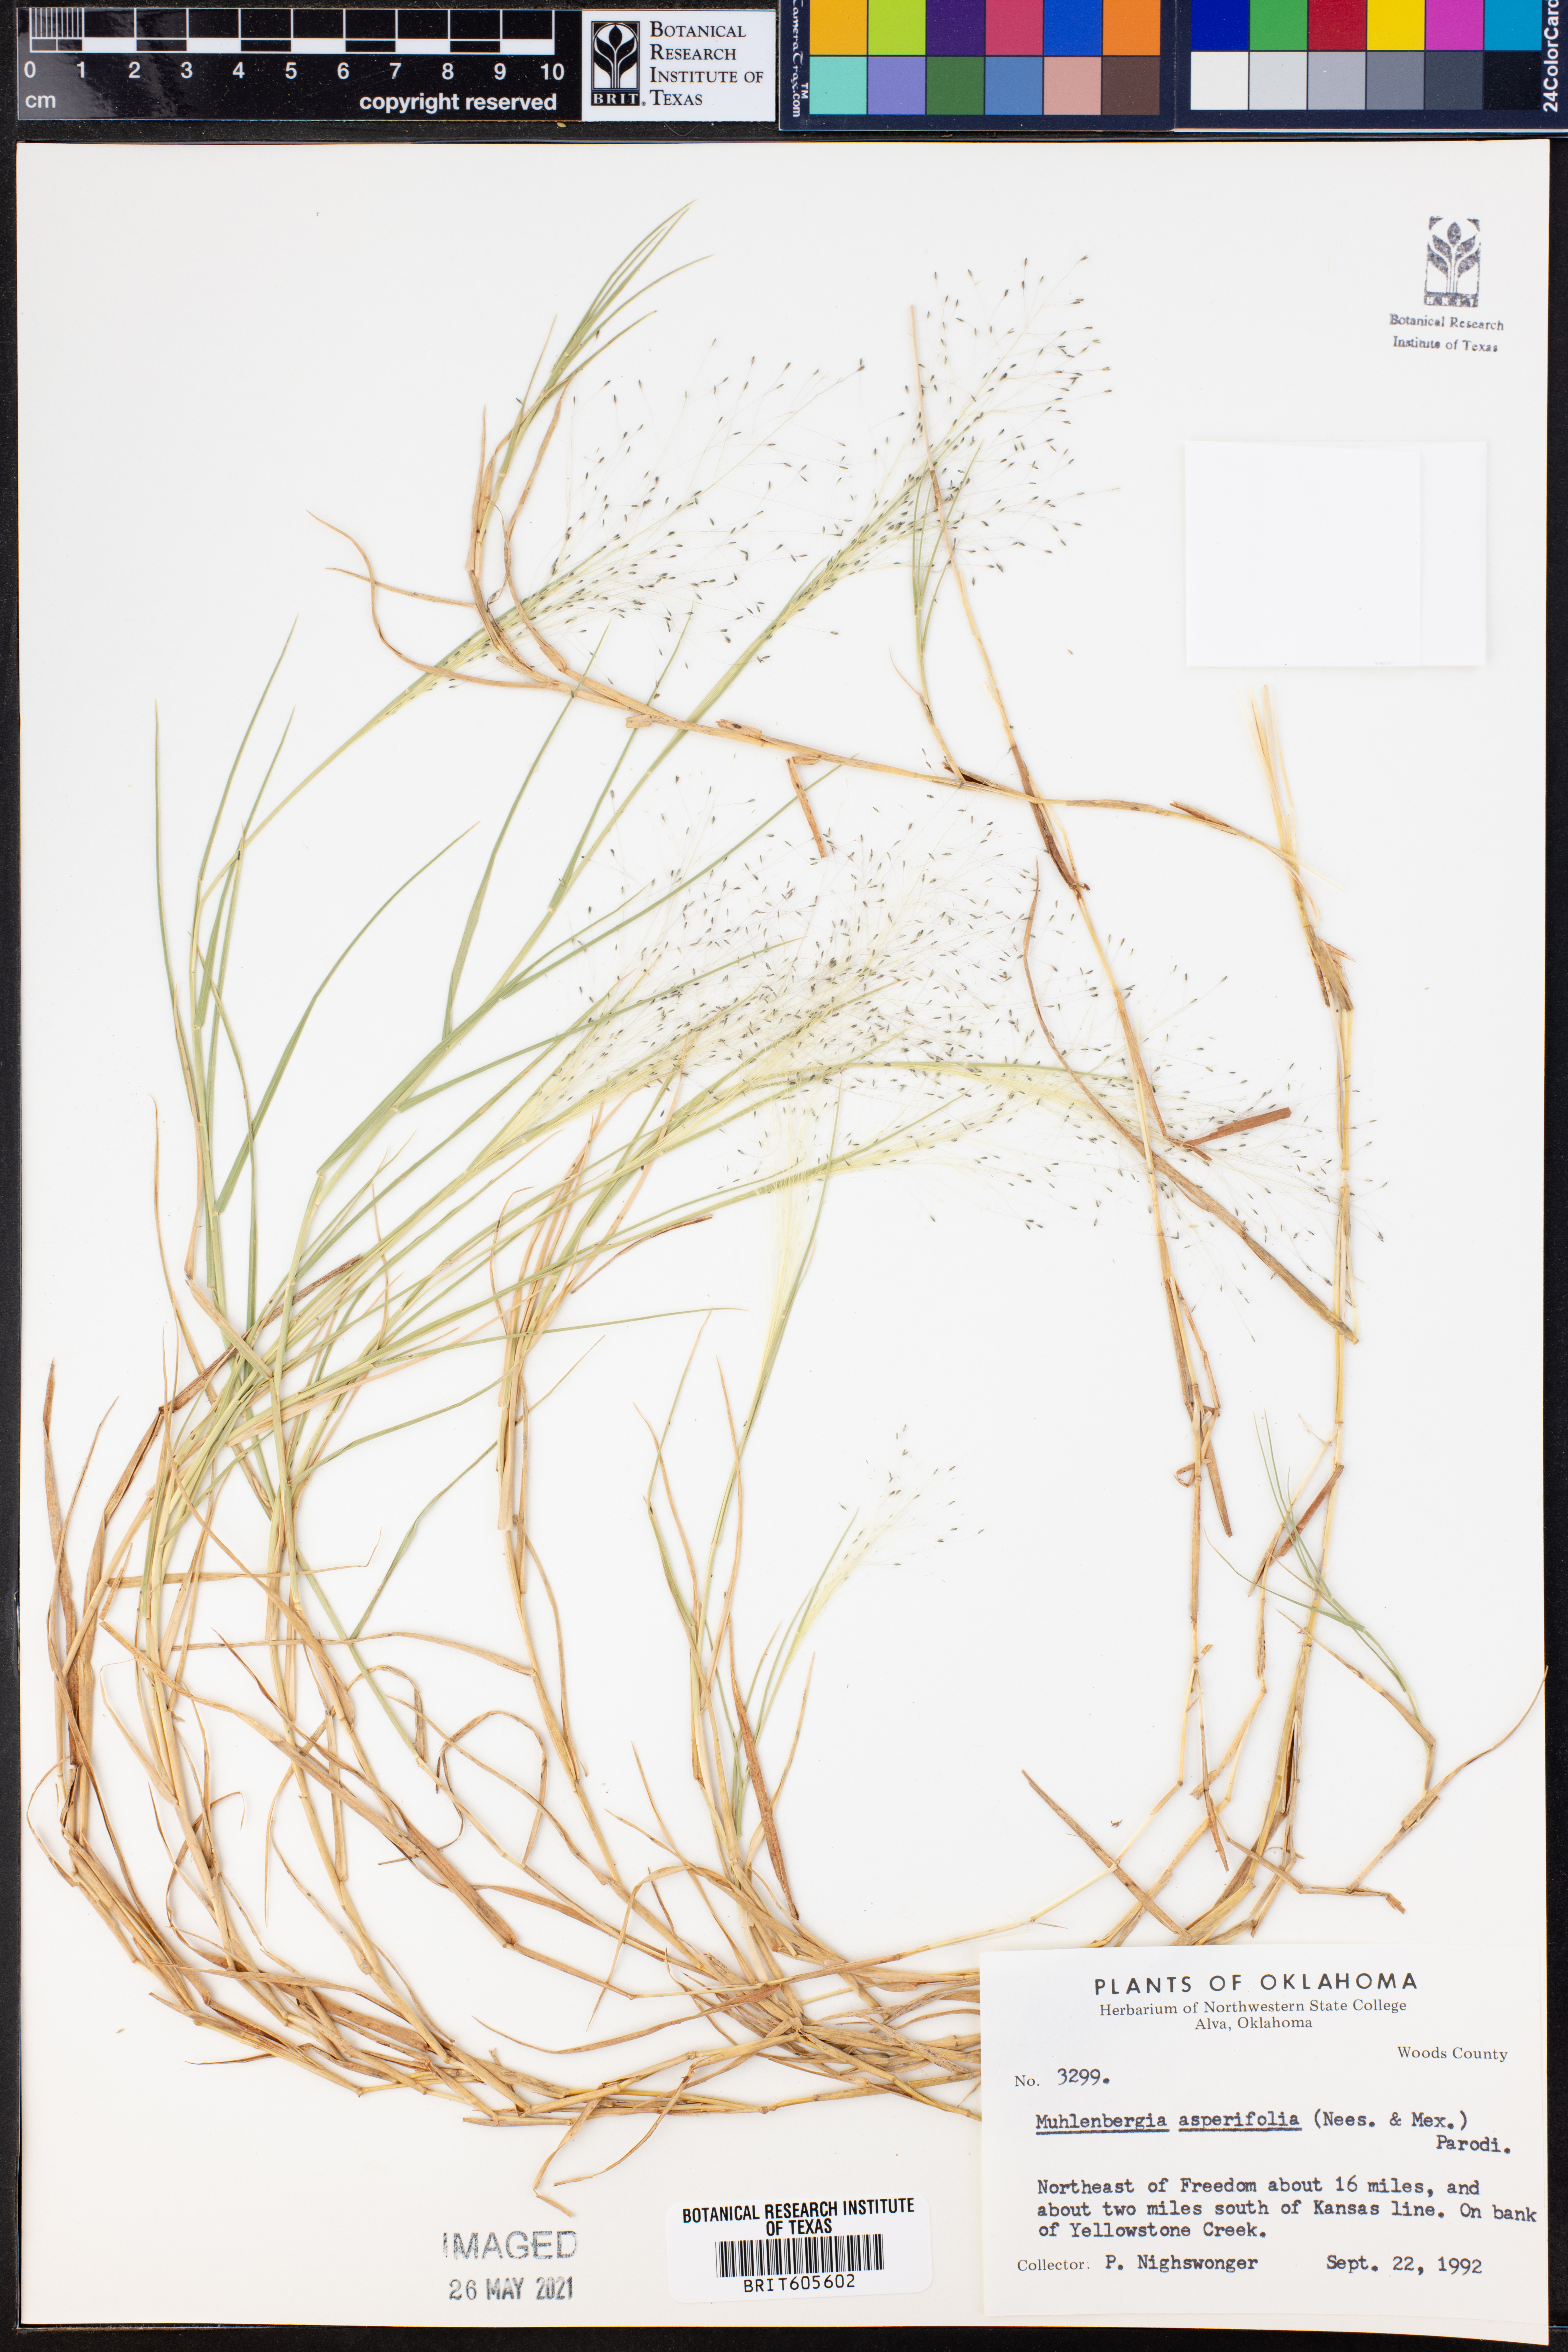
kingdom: Plantae
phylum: Tracheophyta
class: Liliopsida
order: Poales
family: Poaceae
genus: Muhlenbergia
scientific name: Muhlenbergia asperifolia
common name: Alkali muhly
